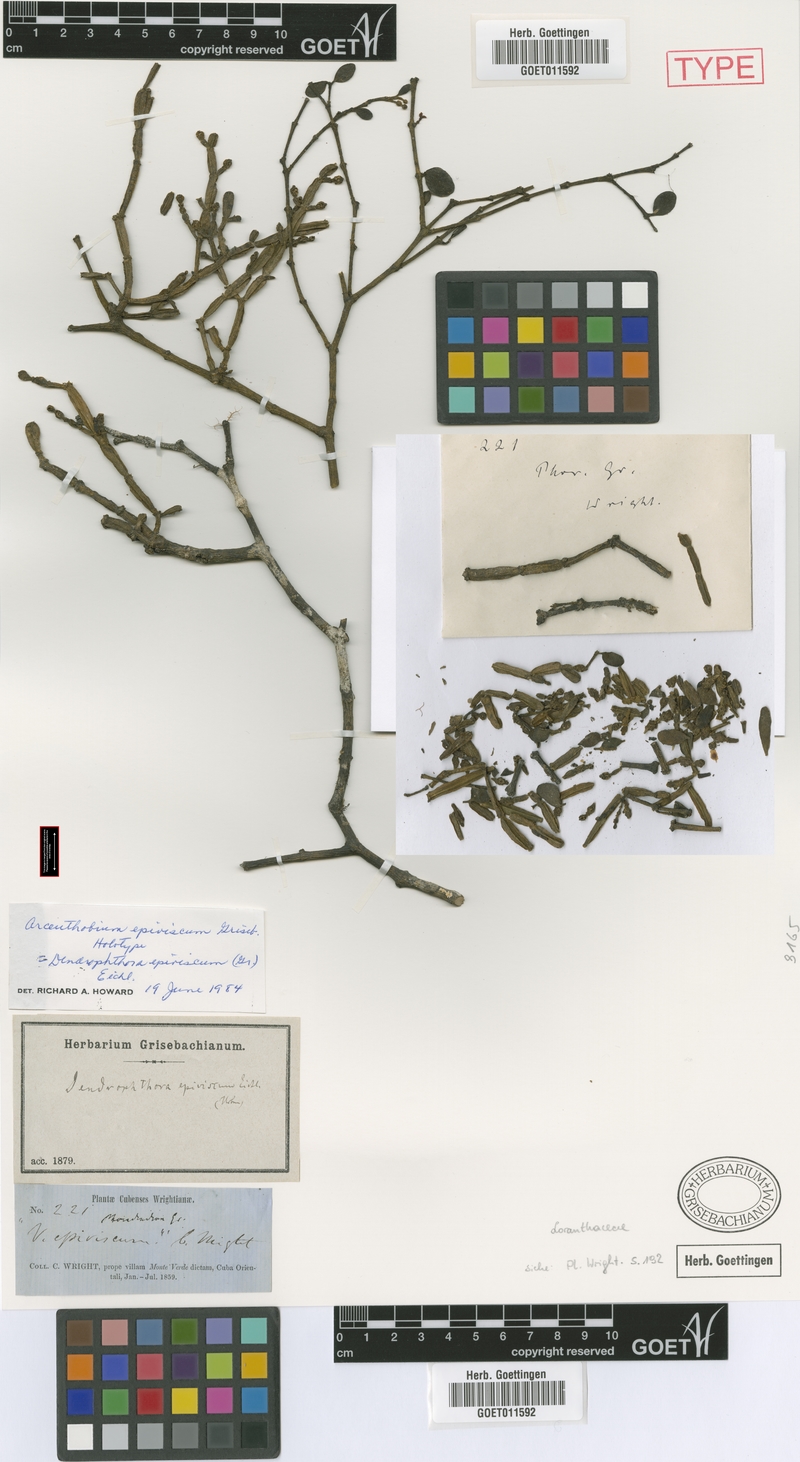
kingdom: Plantae
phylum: Tracheophyta
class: Magnoliopsida
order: Santalales
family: Viscaceae
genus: Dendrophthora
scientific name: Dendrophthora epiviscum
